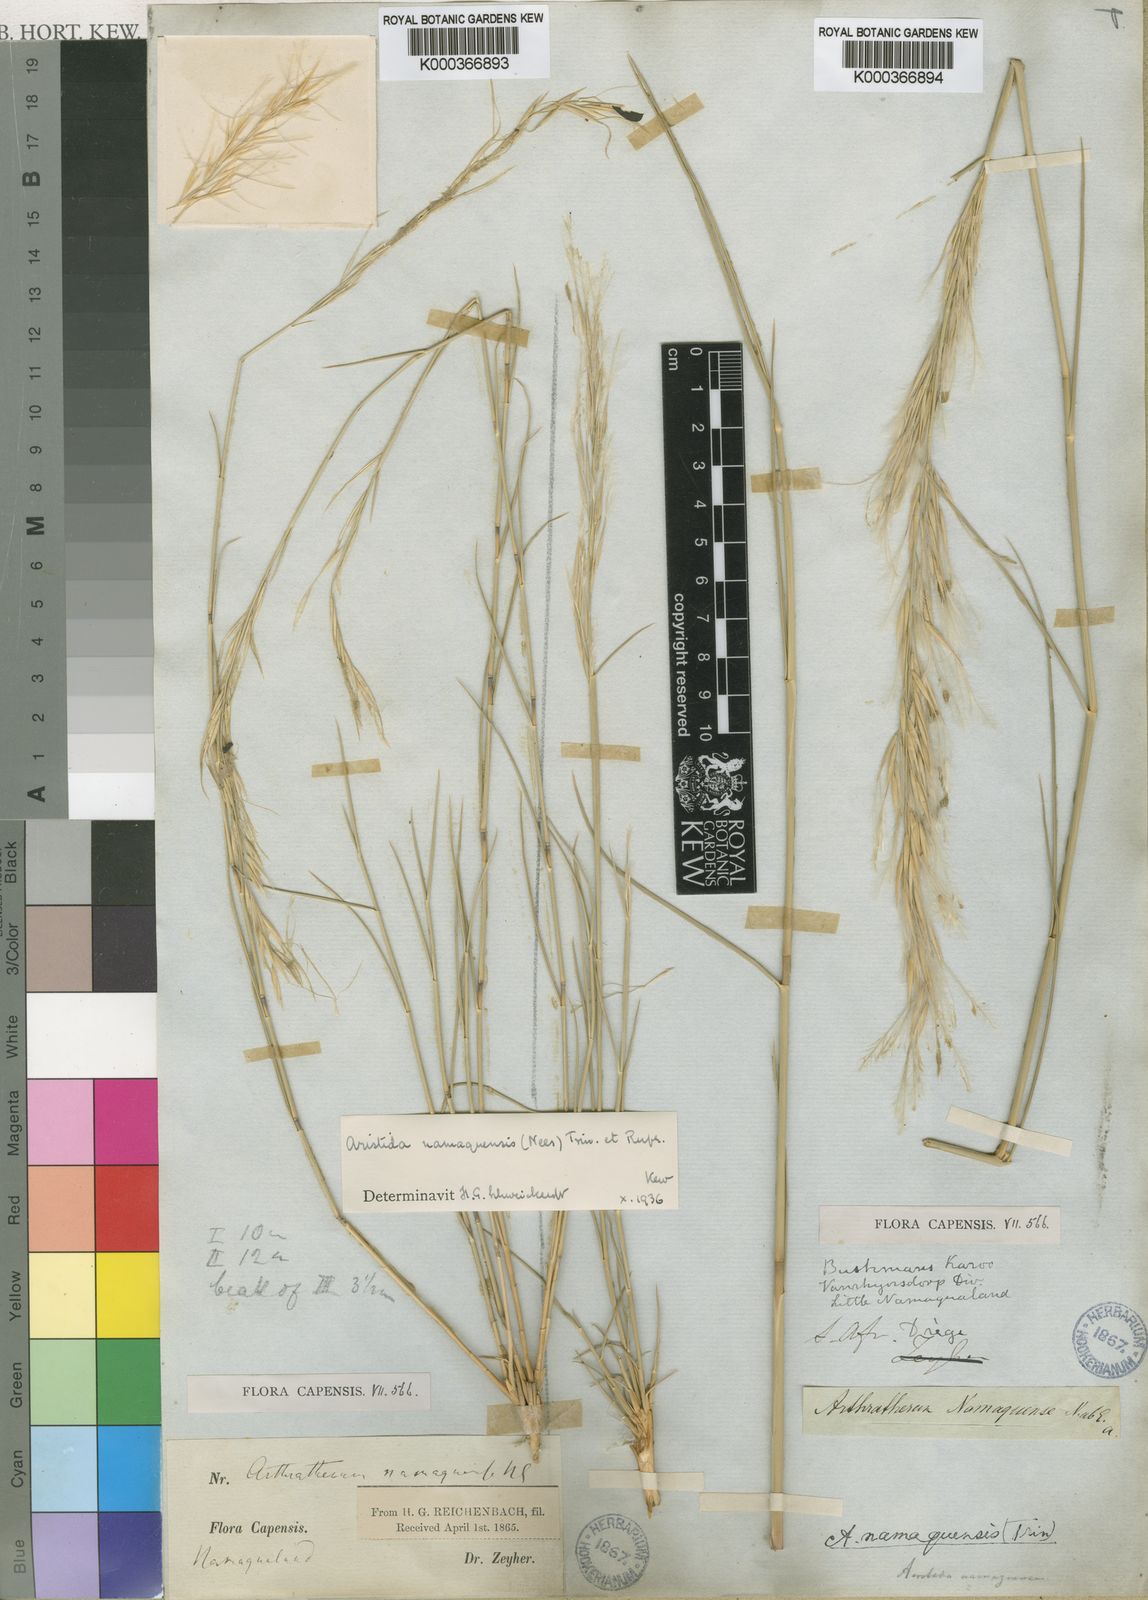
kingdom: Plantae
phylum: Tracheophyta
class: Liliopsida
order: Poales
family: Poaceae
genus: Stipagrostis
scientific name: Stipagrostis namaquensis
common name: River bushman grass
